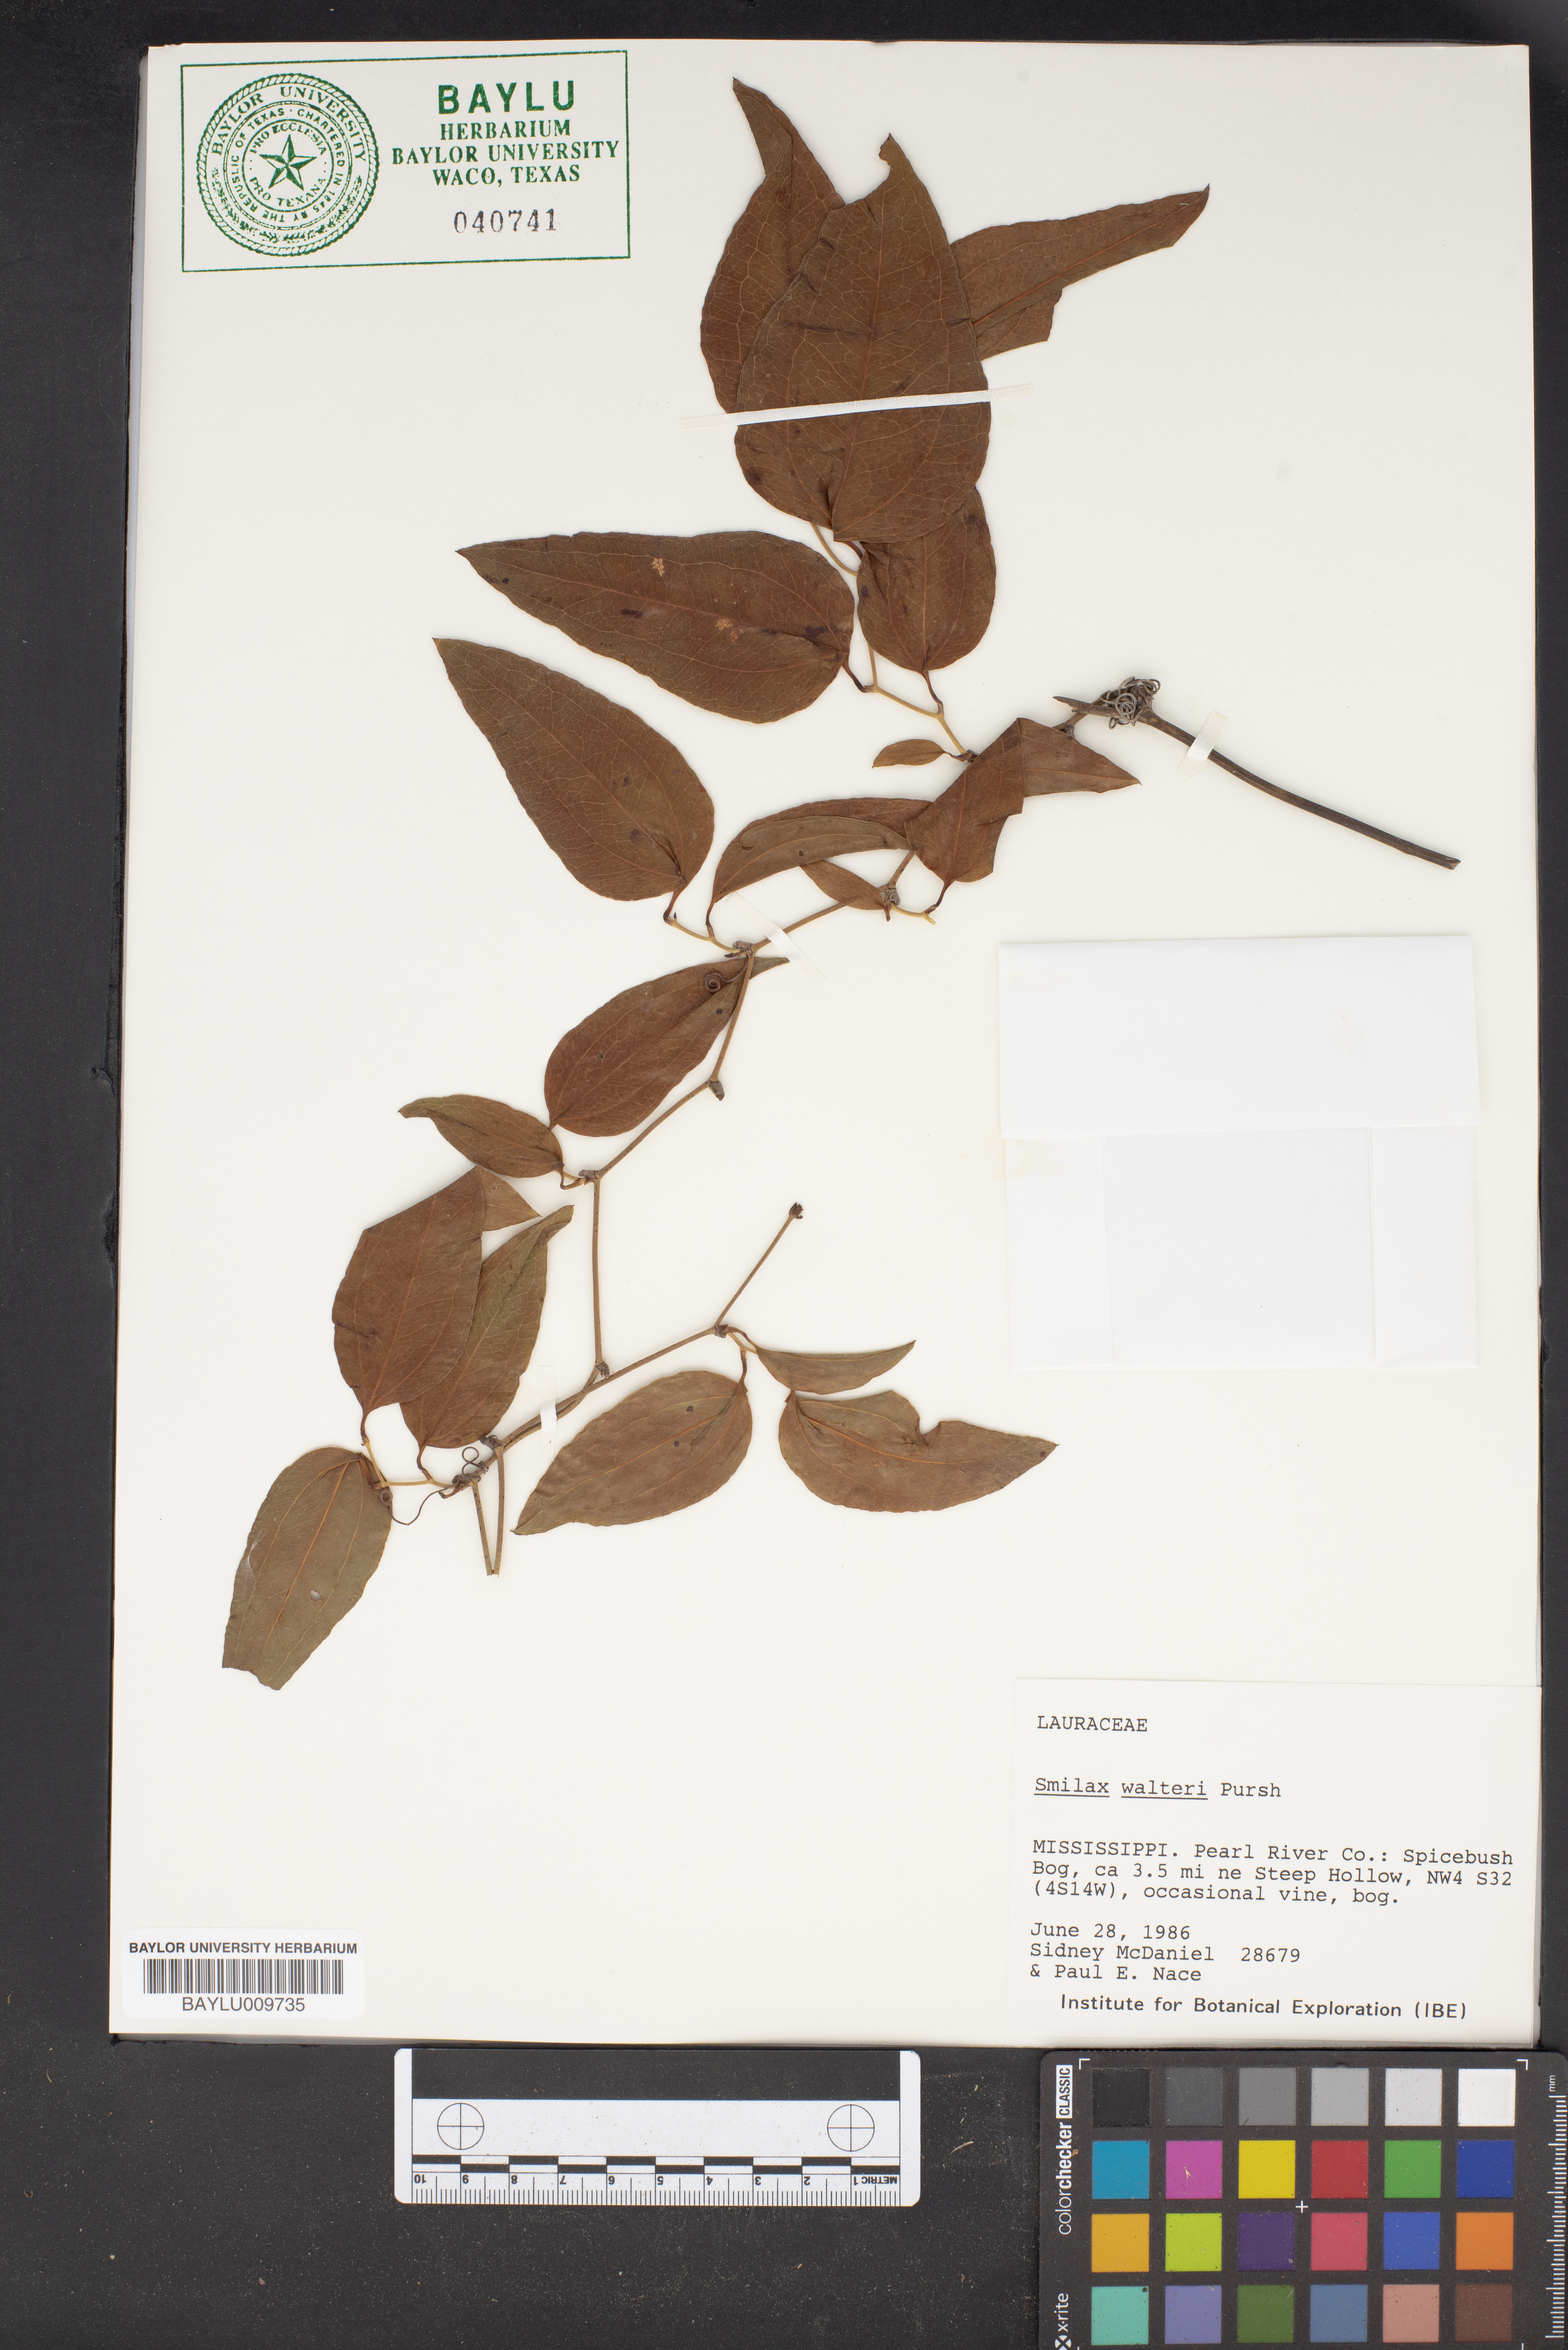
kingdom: Plantae
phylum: Tracheophyta
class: Liliopsida
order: Liliales
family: Smilacaceae
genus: Smilax
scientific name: Smilax walteri
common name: Coral greenbrier
